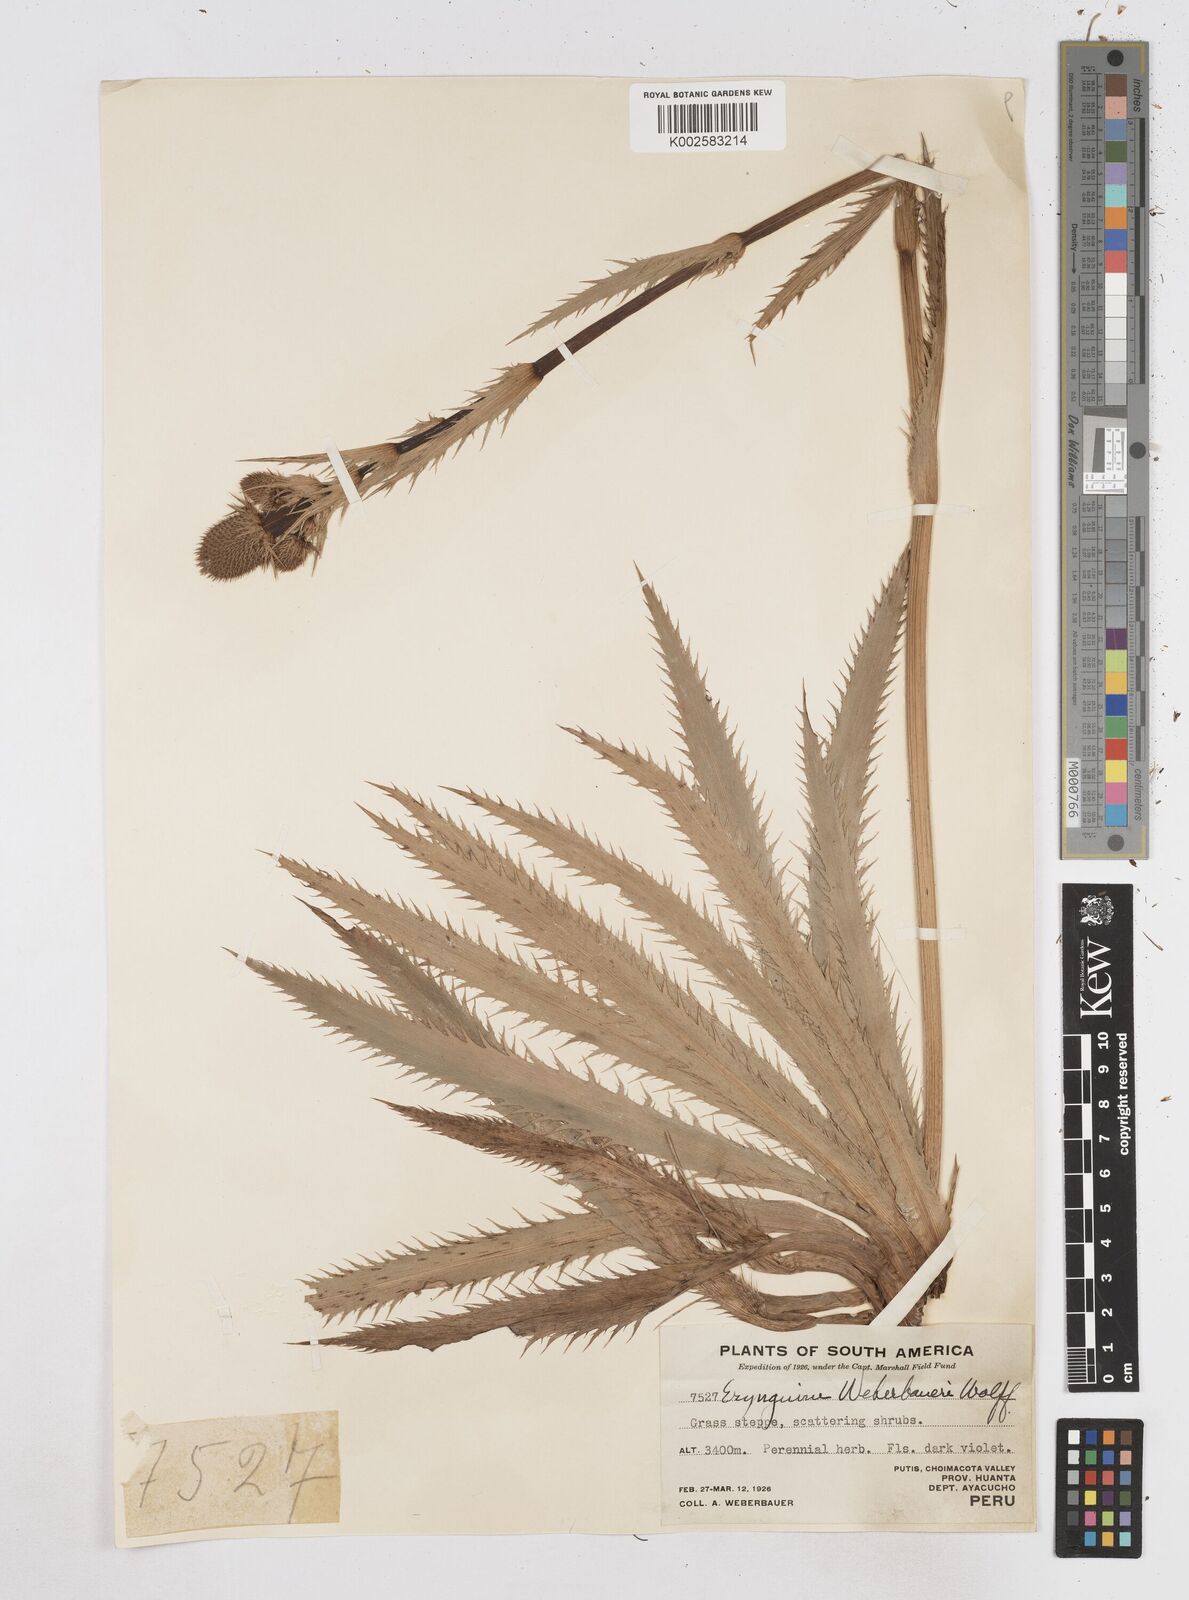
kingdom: Plantae
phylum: Tracheophyta
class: Magnoliopsida
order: Apiales
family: Apiaceae
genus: Eryngium
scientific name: Eryngium weberbaueri
